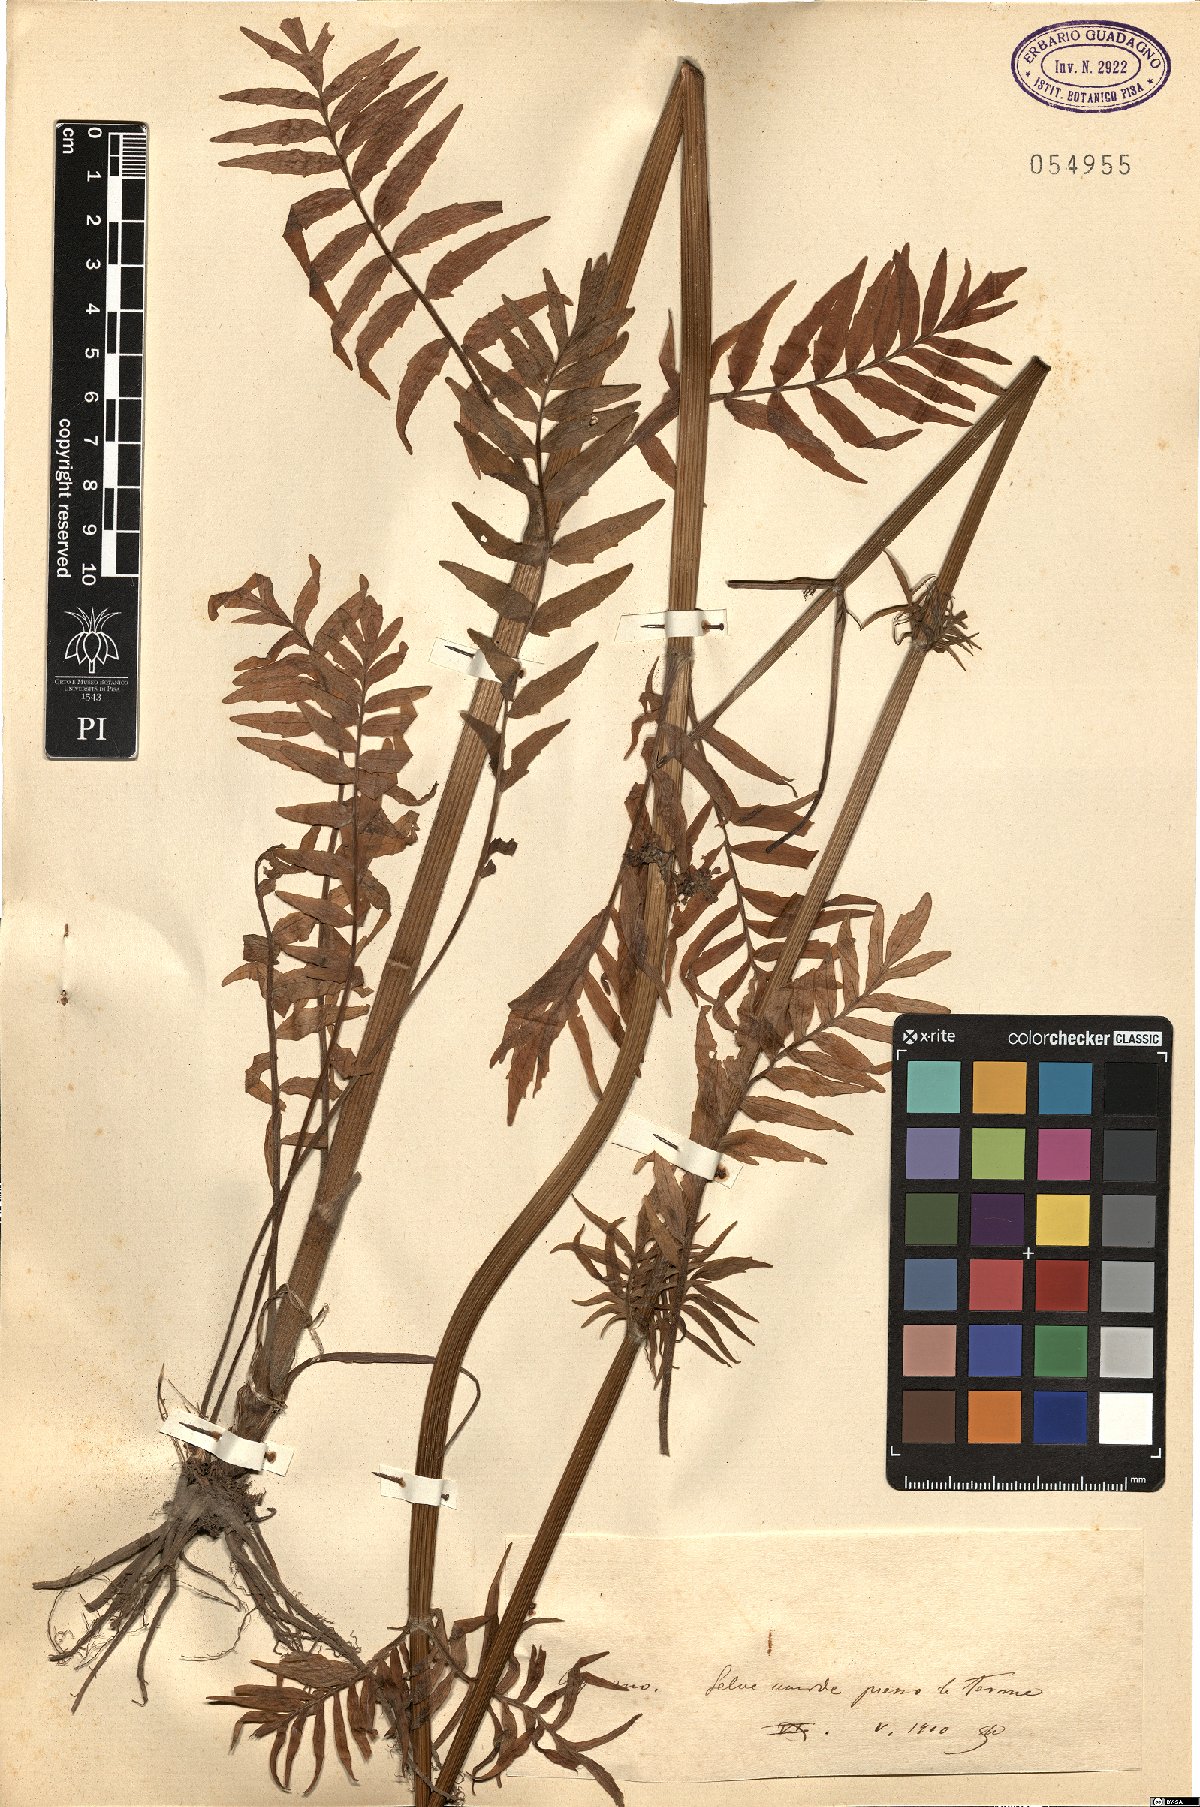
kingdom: Plantae
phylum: Tracheophyta
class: Magnoliopsida
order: Dipsacales
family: Caprifoliaceae
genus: Valeriana
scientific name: Valeriana
